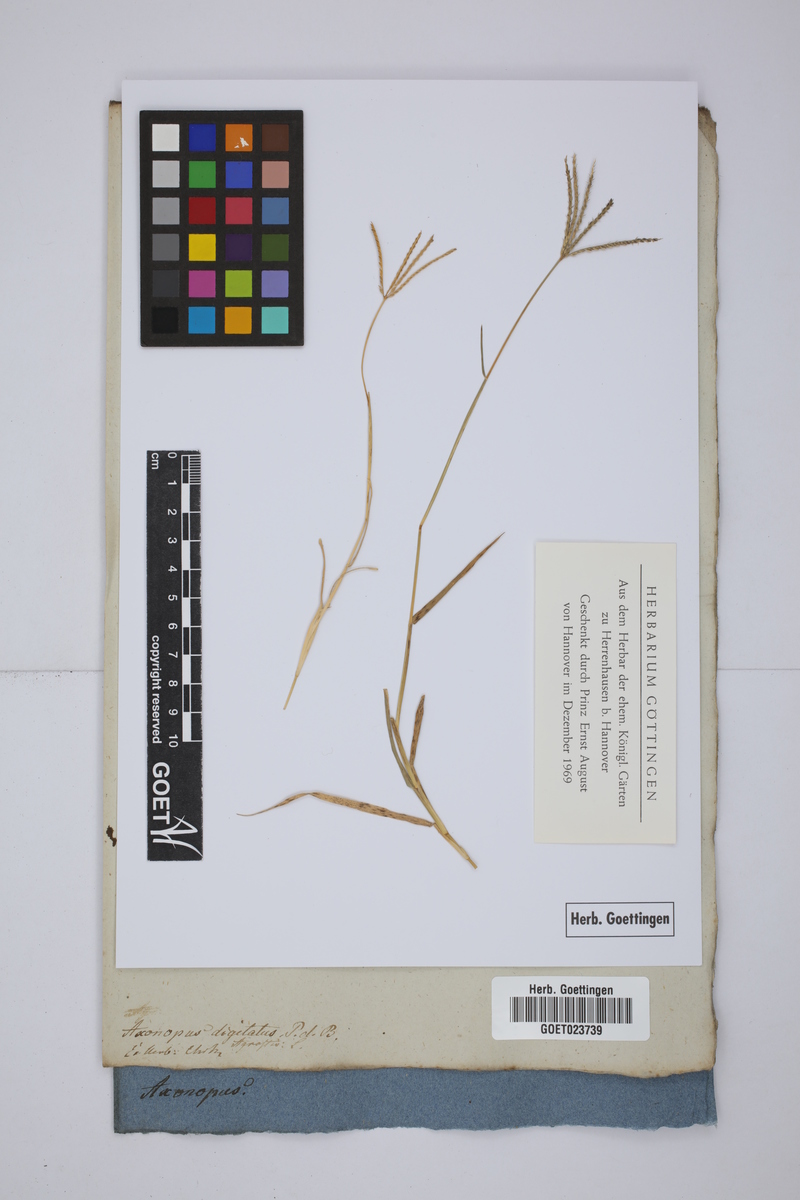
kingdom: Plantae
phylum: Tracheophyta
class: Liliopsida
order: Poales
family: Poaceae
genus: Digitaria
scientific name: Digitaria nuda
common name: Naked crabgrass
